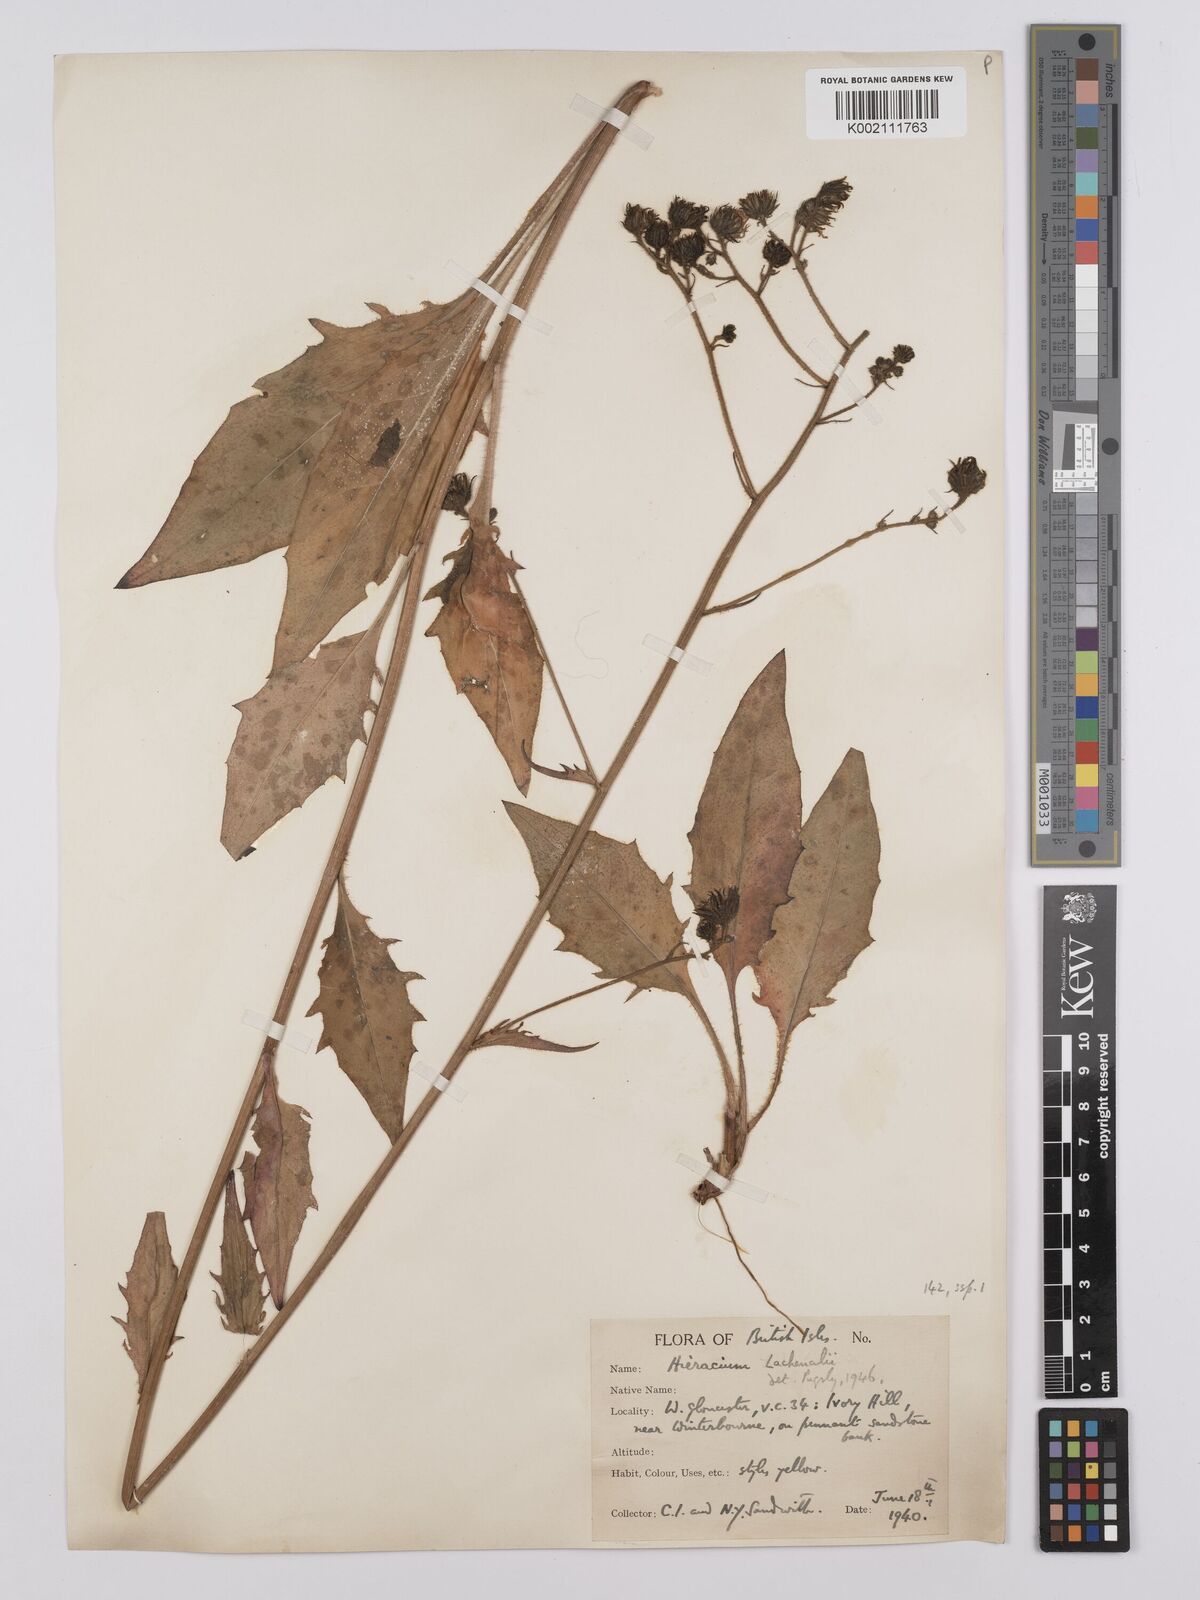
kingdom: Plantae
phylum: Tracheophyta
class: Magnoliopsida
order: Asterales
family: Asteraceae
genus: Hieracium
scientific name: Hieracium lachenalii
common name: Common hawkweed
